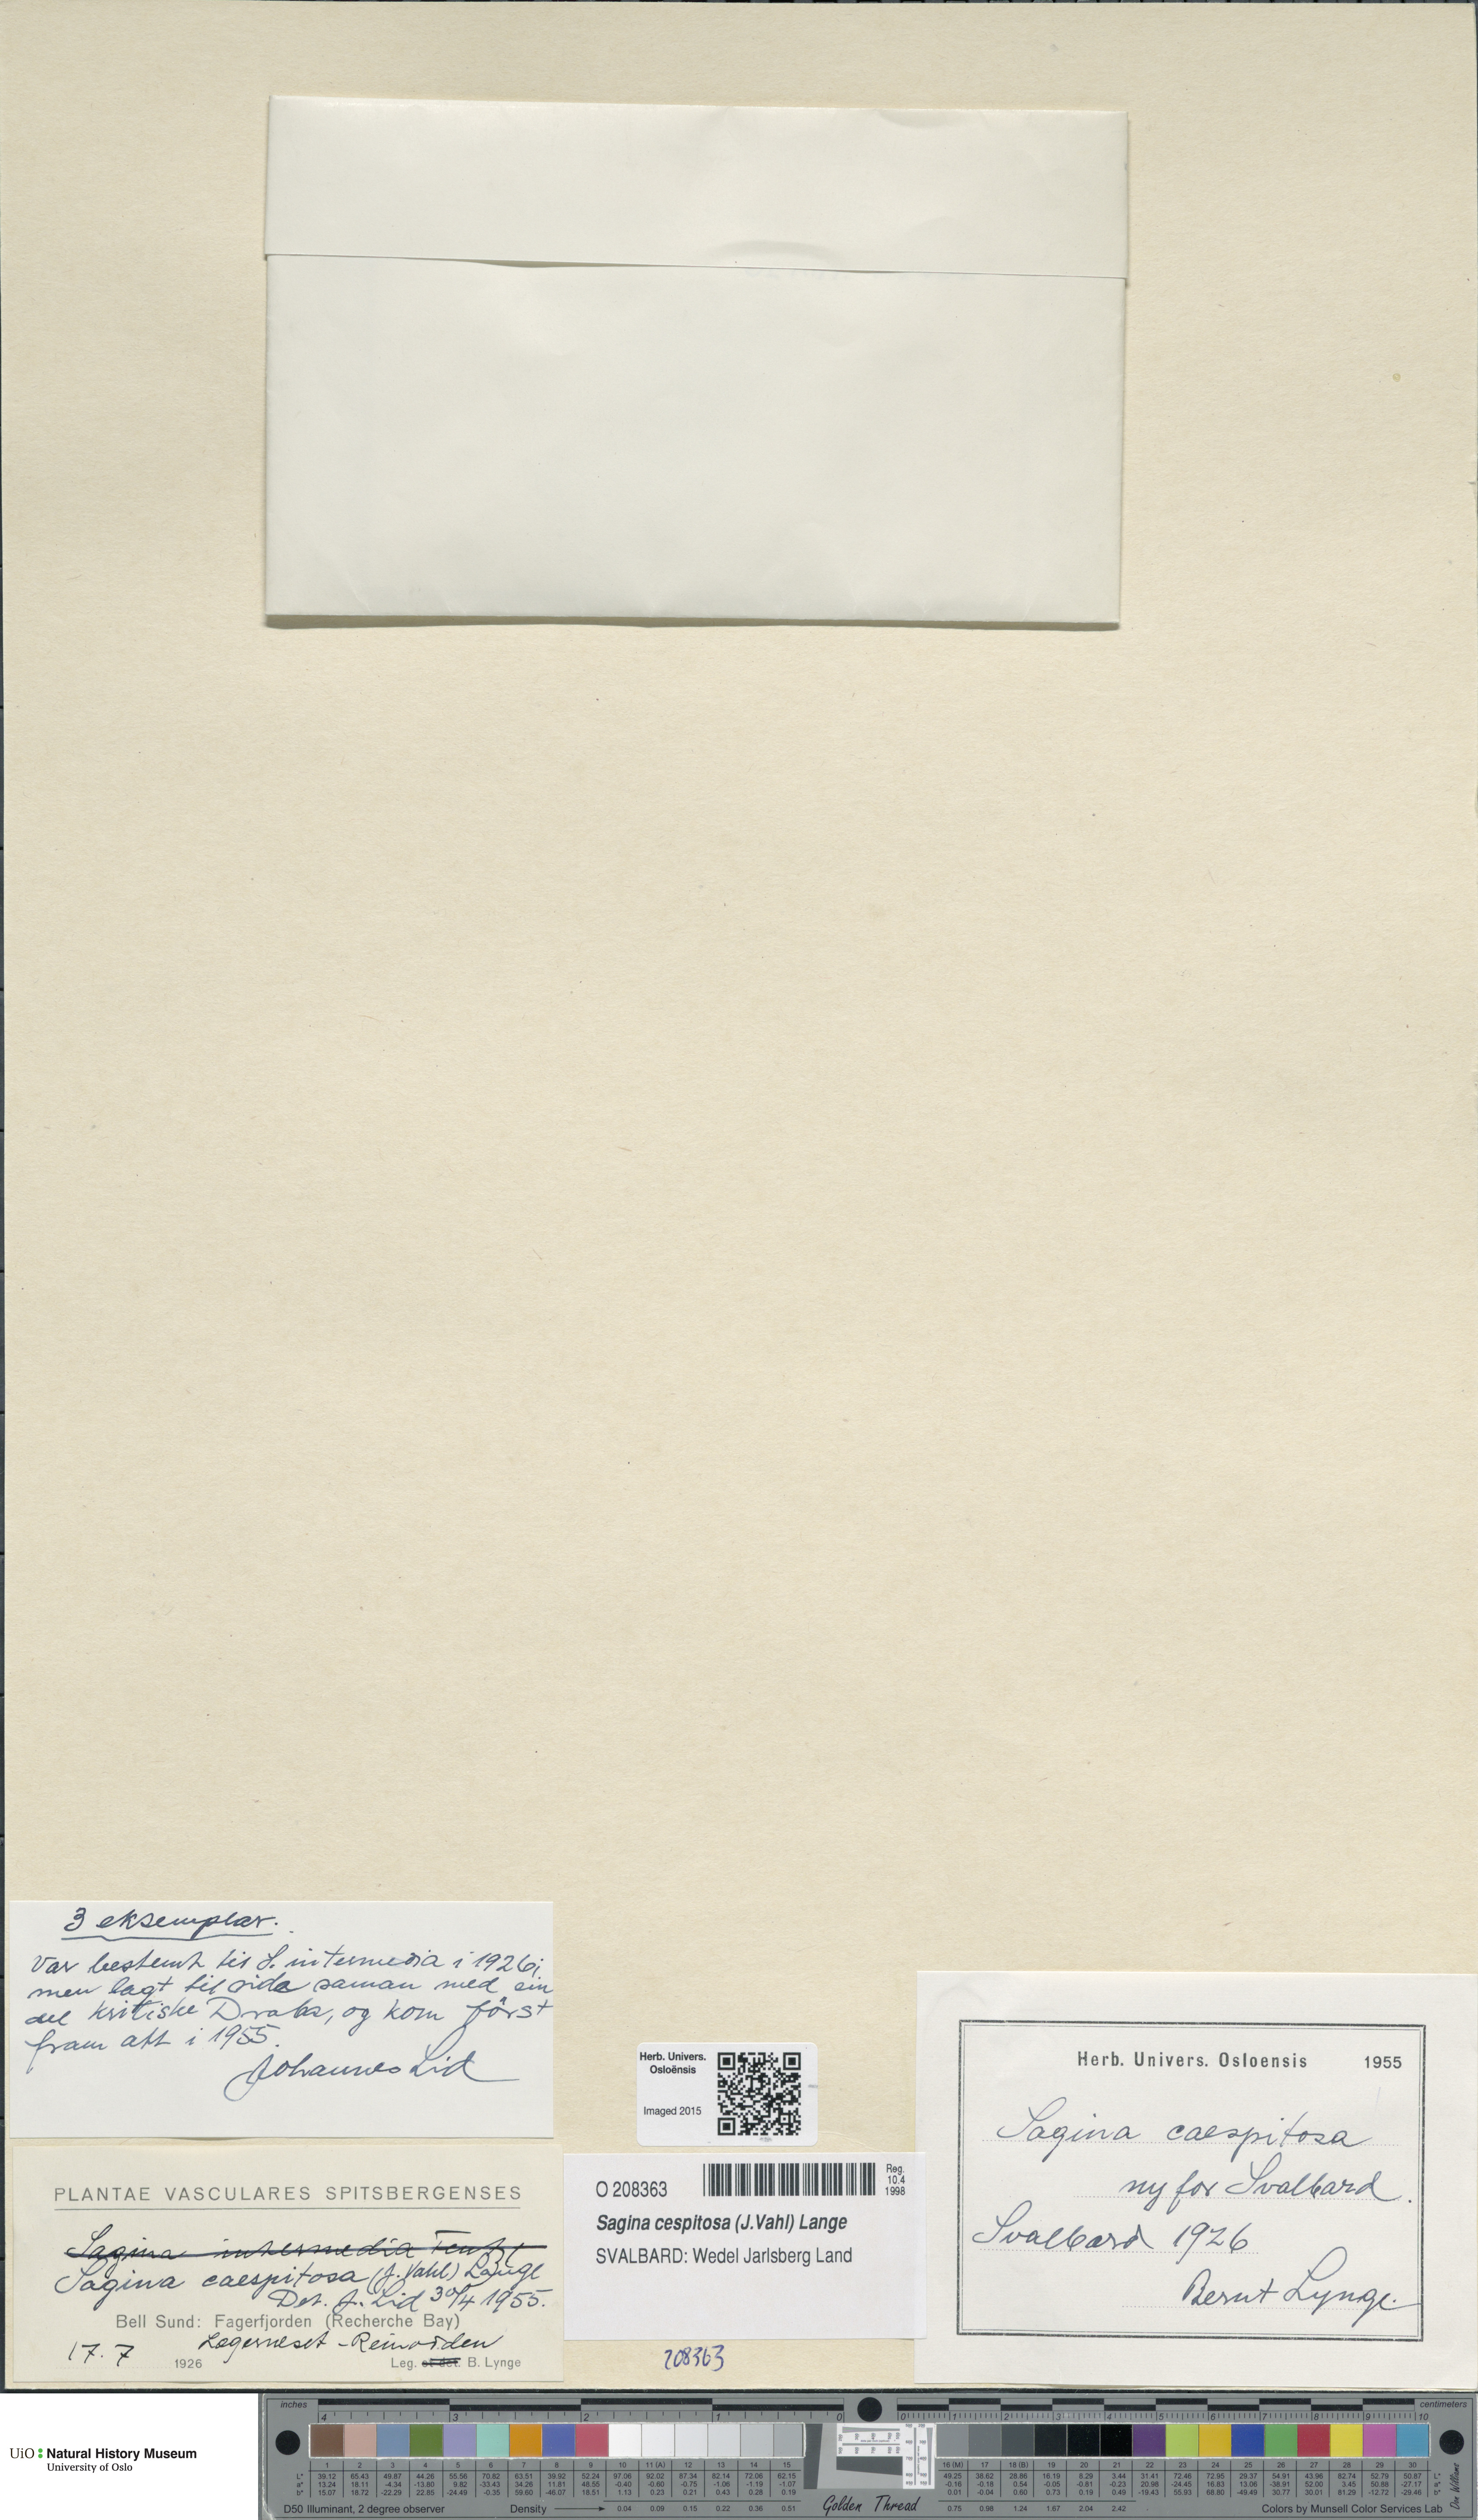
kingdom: Plantae
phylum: Tracheophyta
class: Magnoliopsida
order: Caryophyllales
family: Caryophyllaceae
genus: Sagina
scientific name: Sagina caespitosa
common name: Tufted pearlwort
